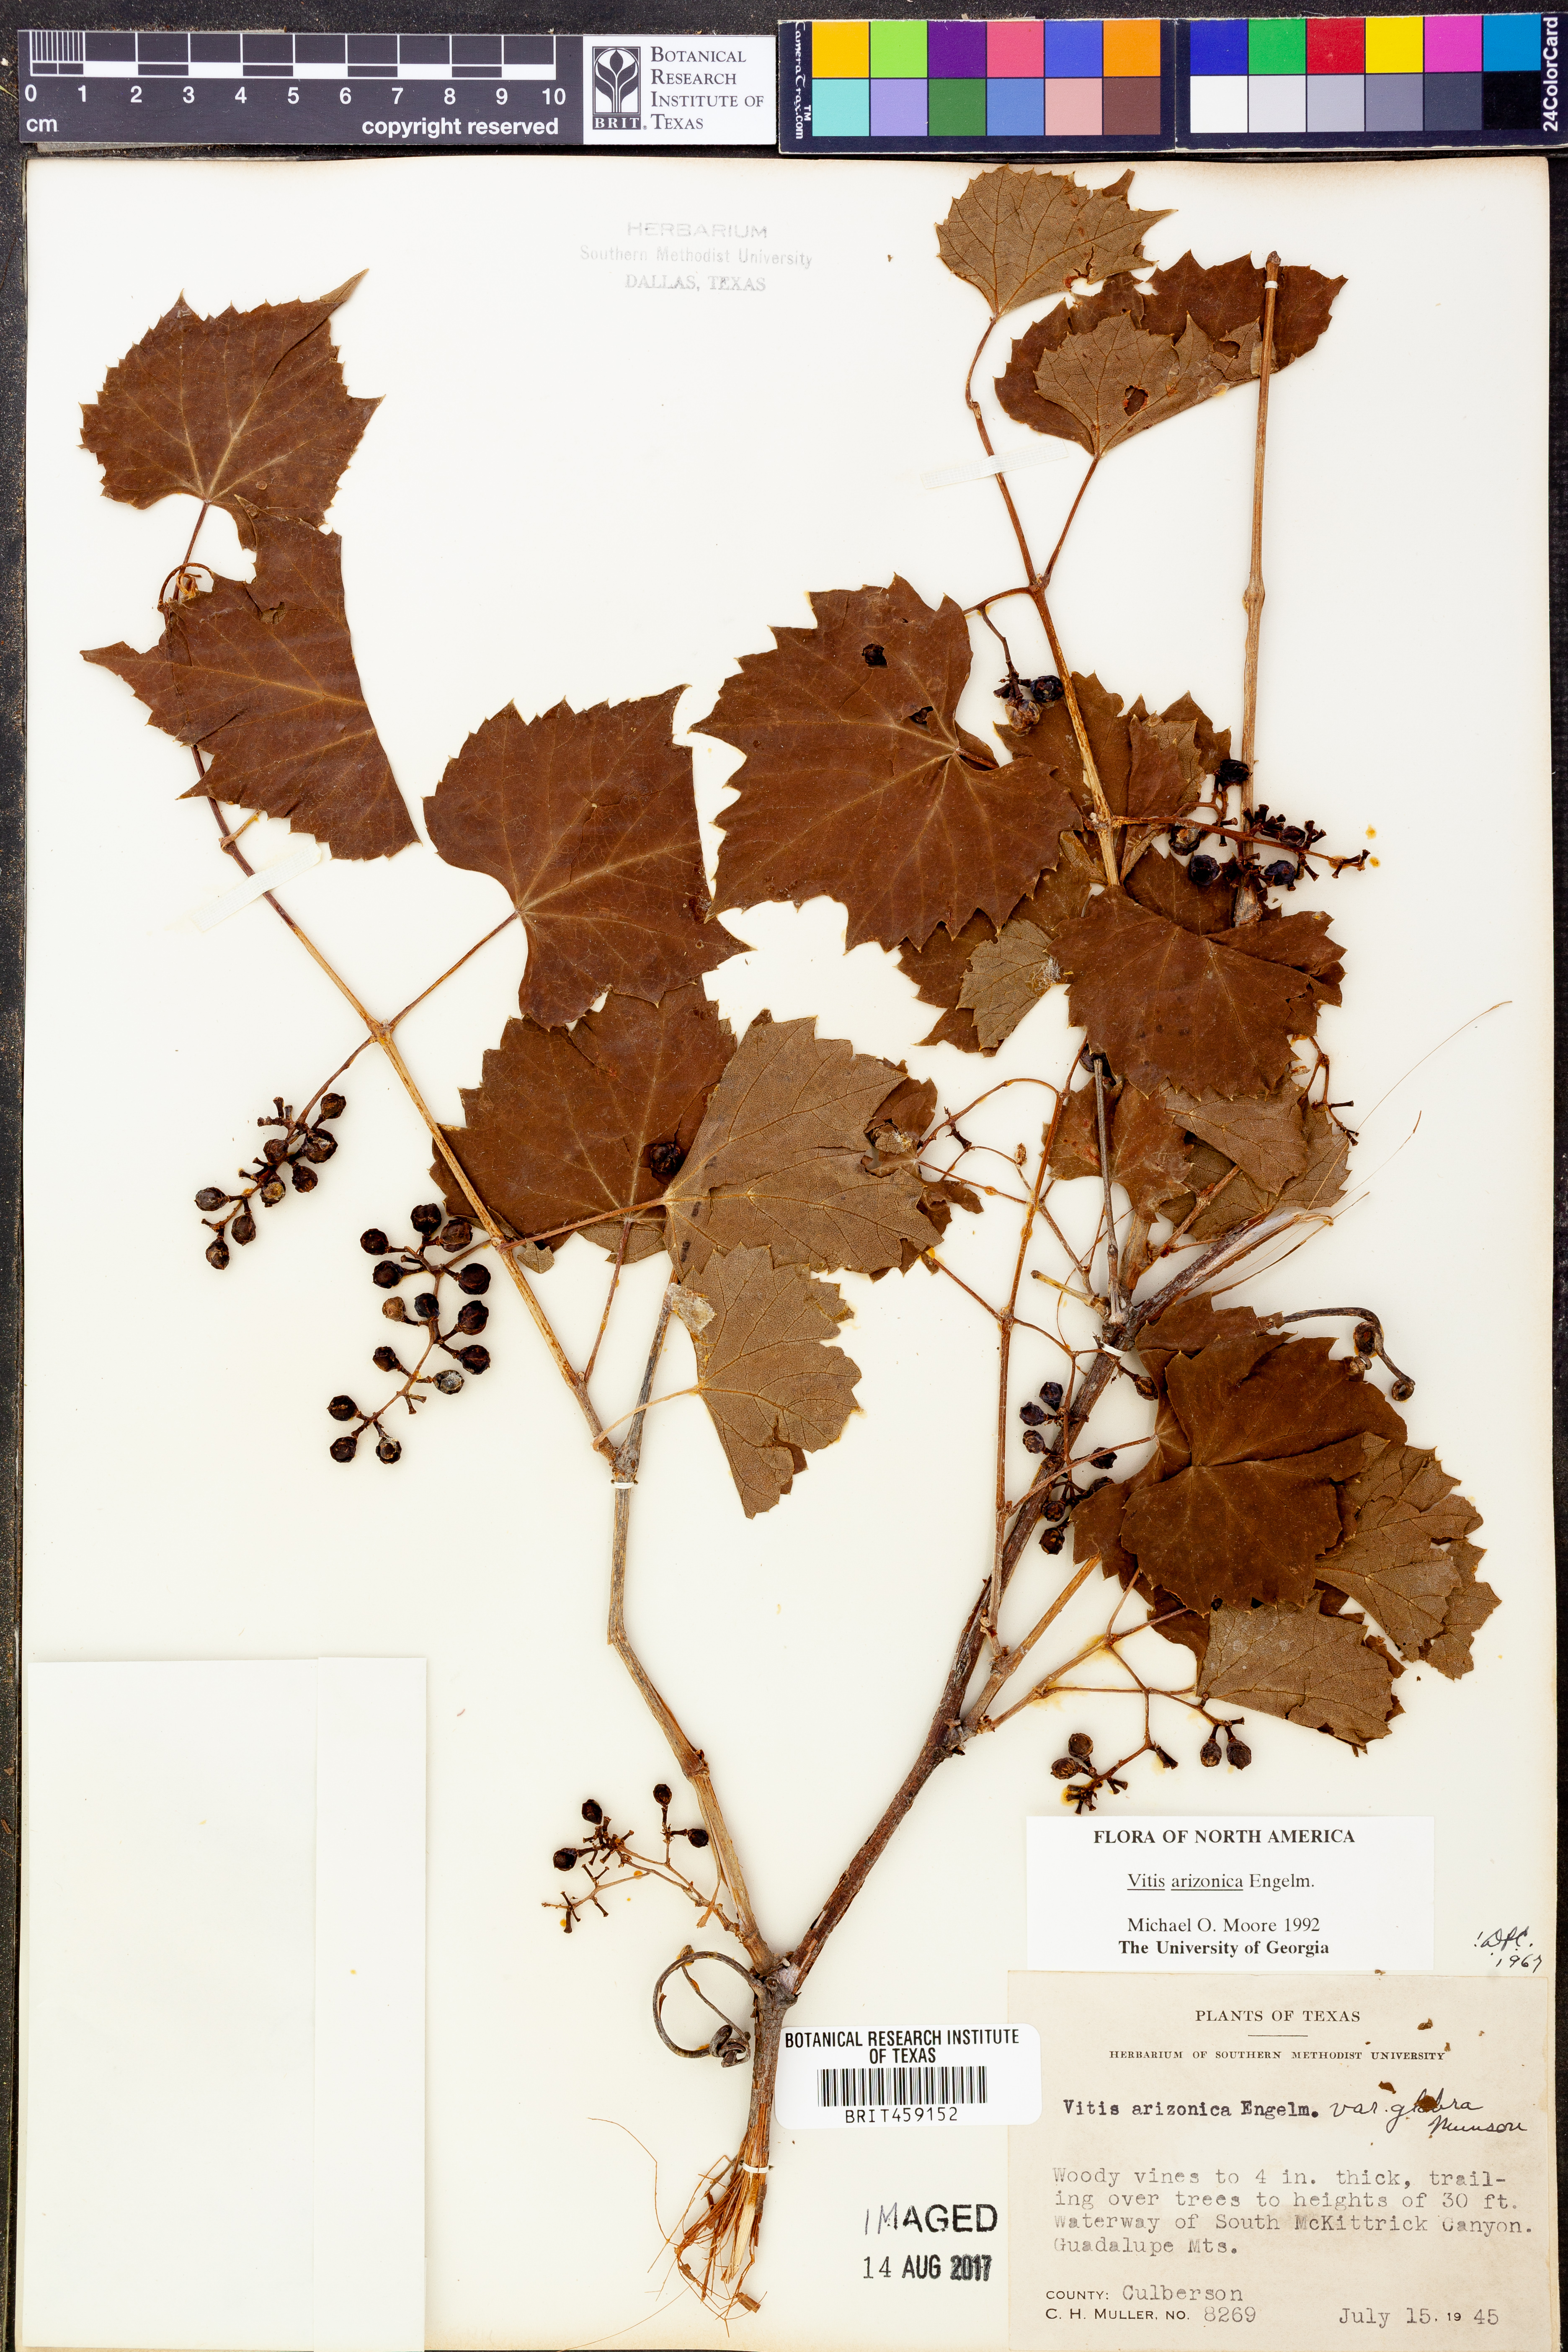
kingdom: Plantae
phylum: Tracheophyta
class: Magnoliopsida
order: Vitales
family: Vitaceae
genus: Vitis
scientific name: Vitis arizonica
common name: Canyon grape
